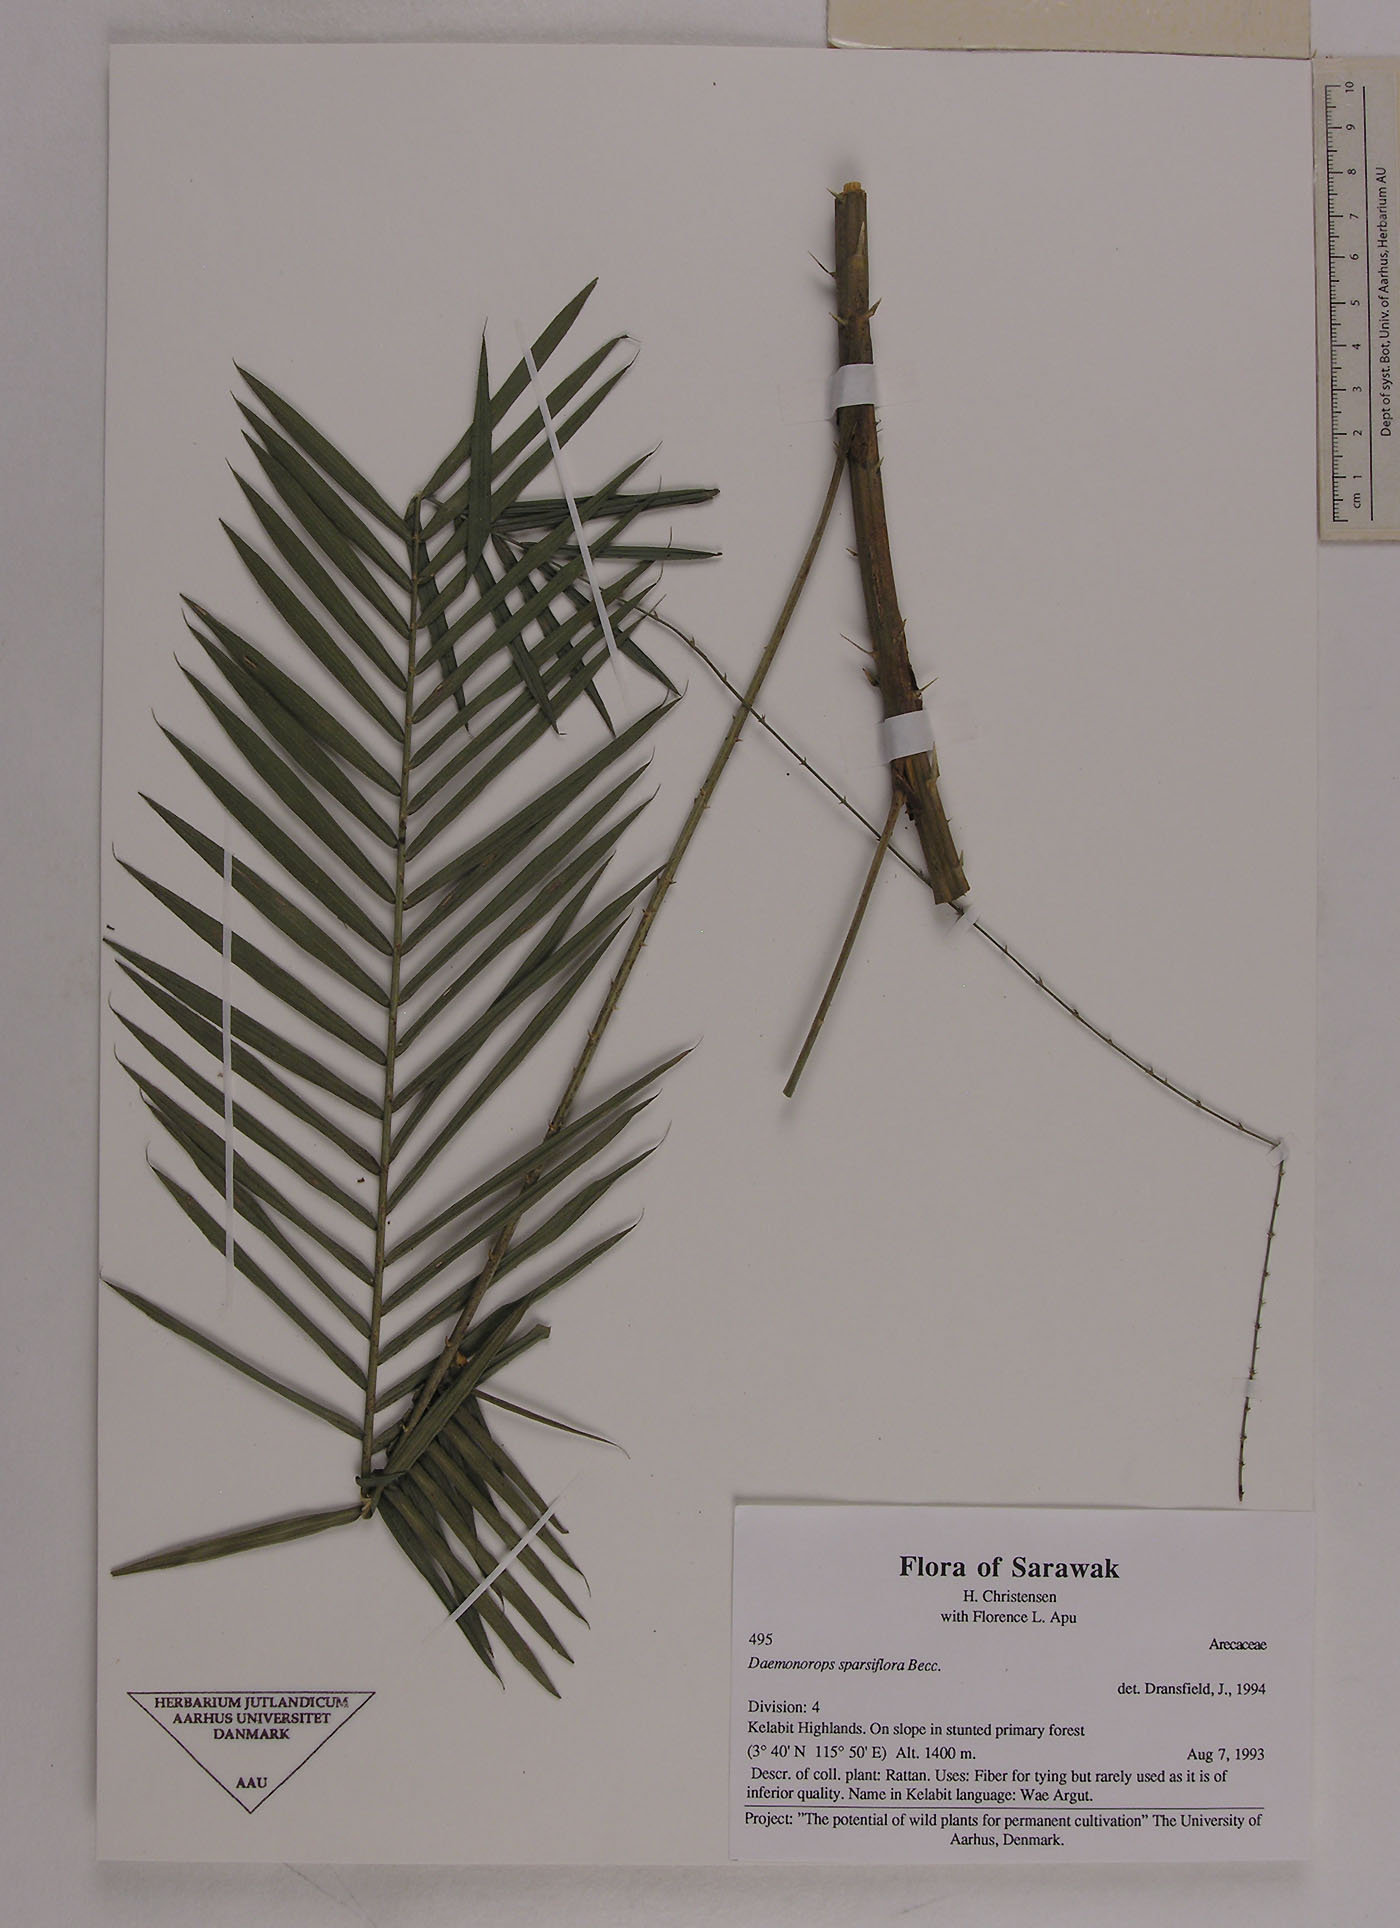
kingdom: Plantae
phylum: Tracheophyta
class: Liliopsida
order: Arecales
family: Arecaceae
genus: Calamus
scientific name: Calamus sparsiflorus
